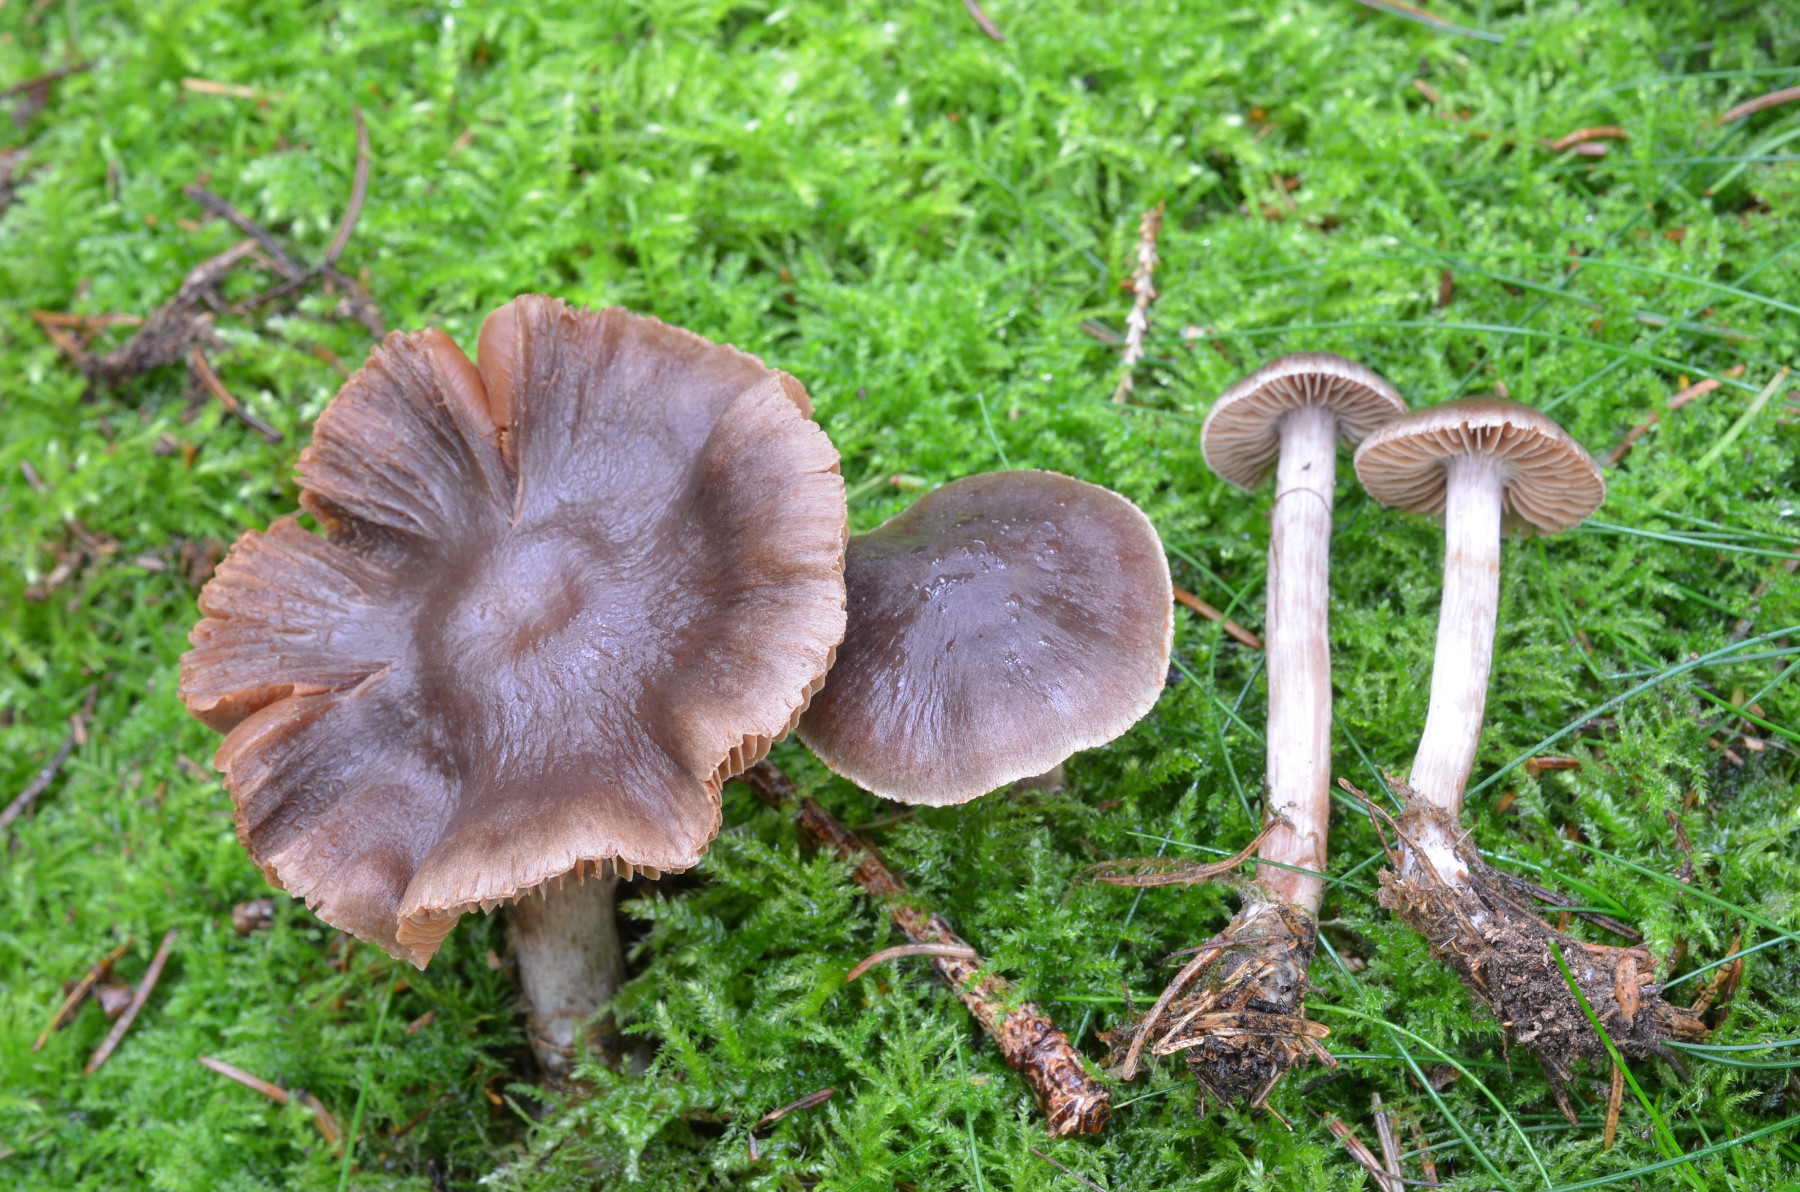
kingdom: Fungi
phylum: Basidiomycota
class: Agaricomycetes
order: Agaricales
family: Cortinariaceae
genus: Cortinarius
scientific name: Cortinarius subobtusobrunneus
